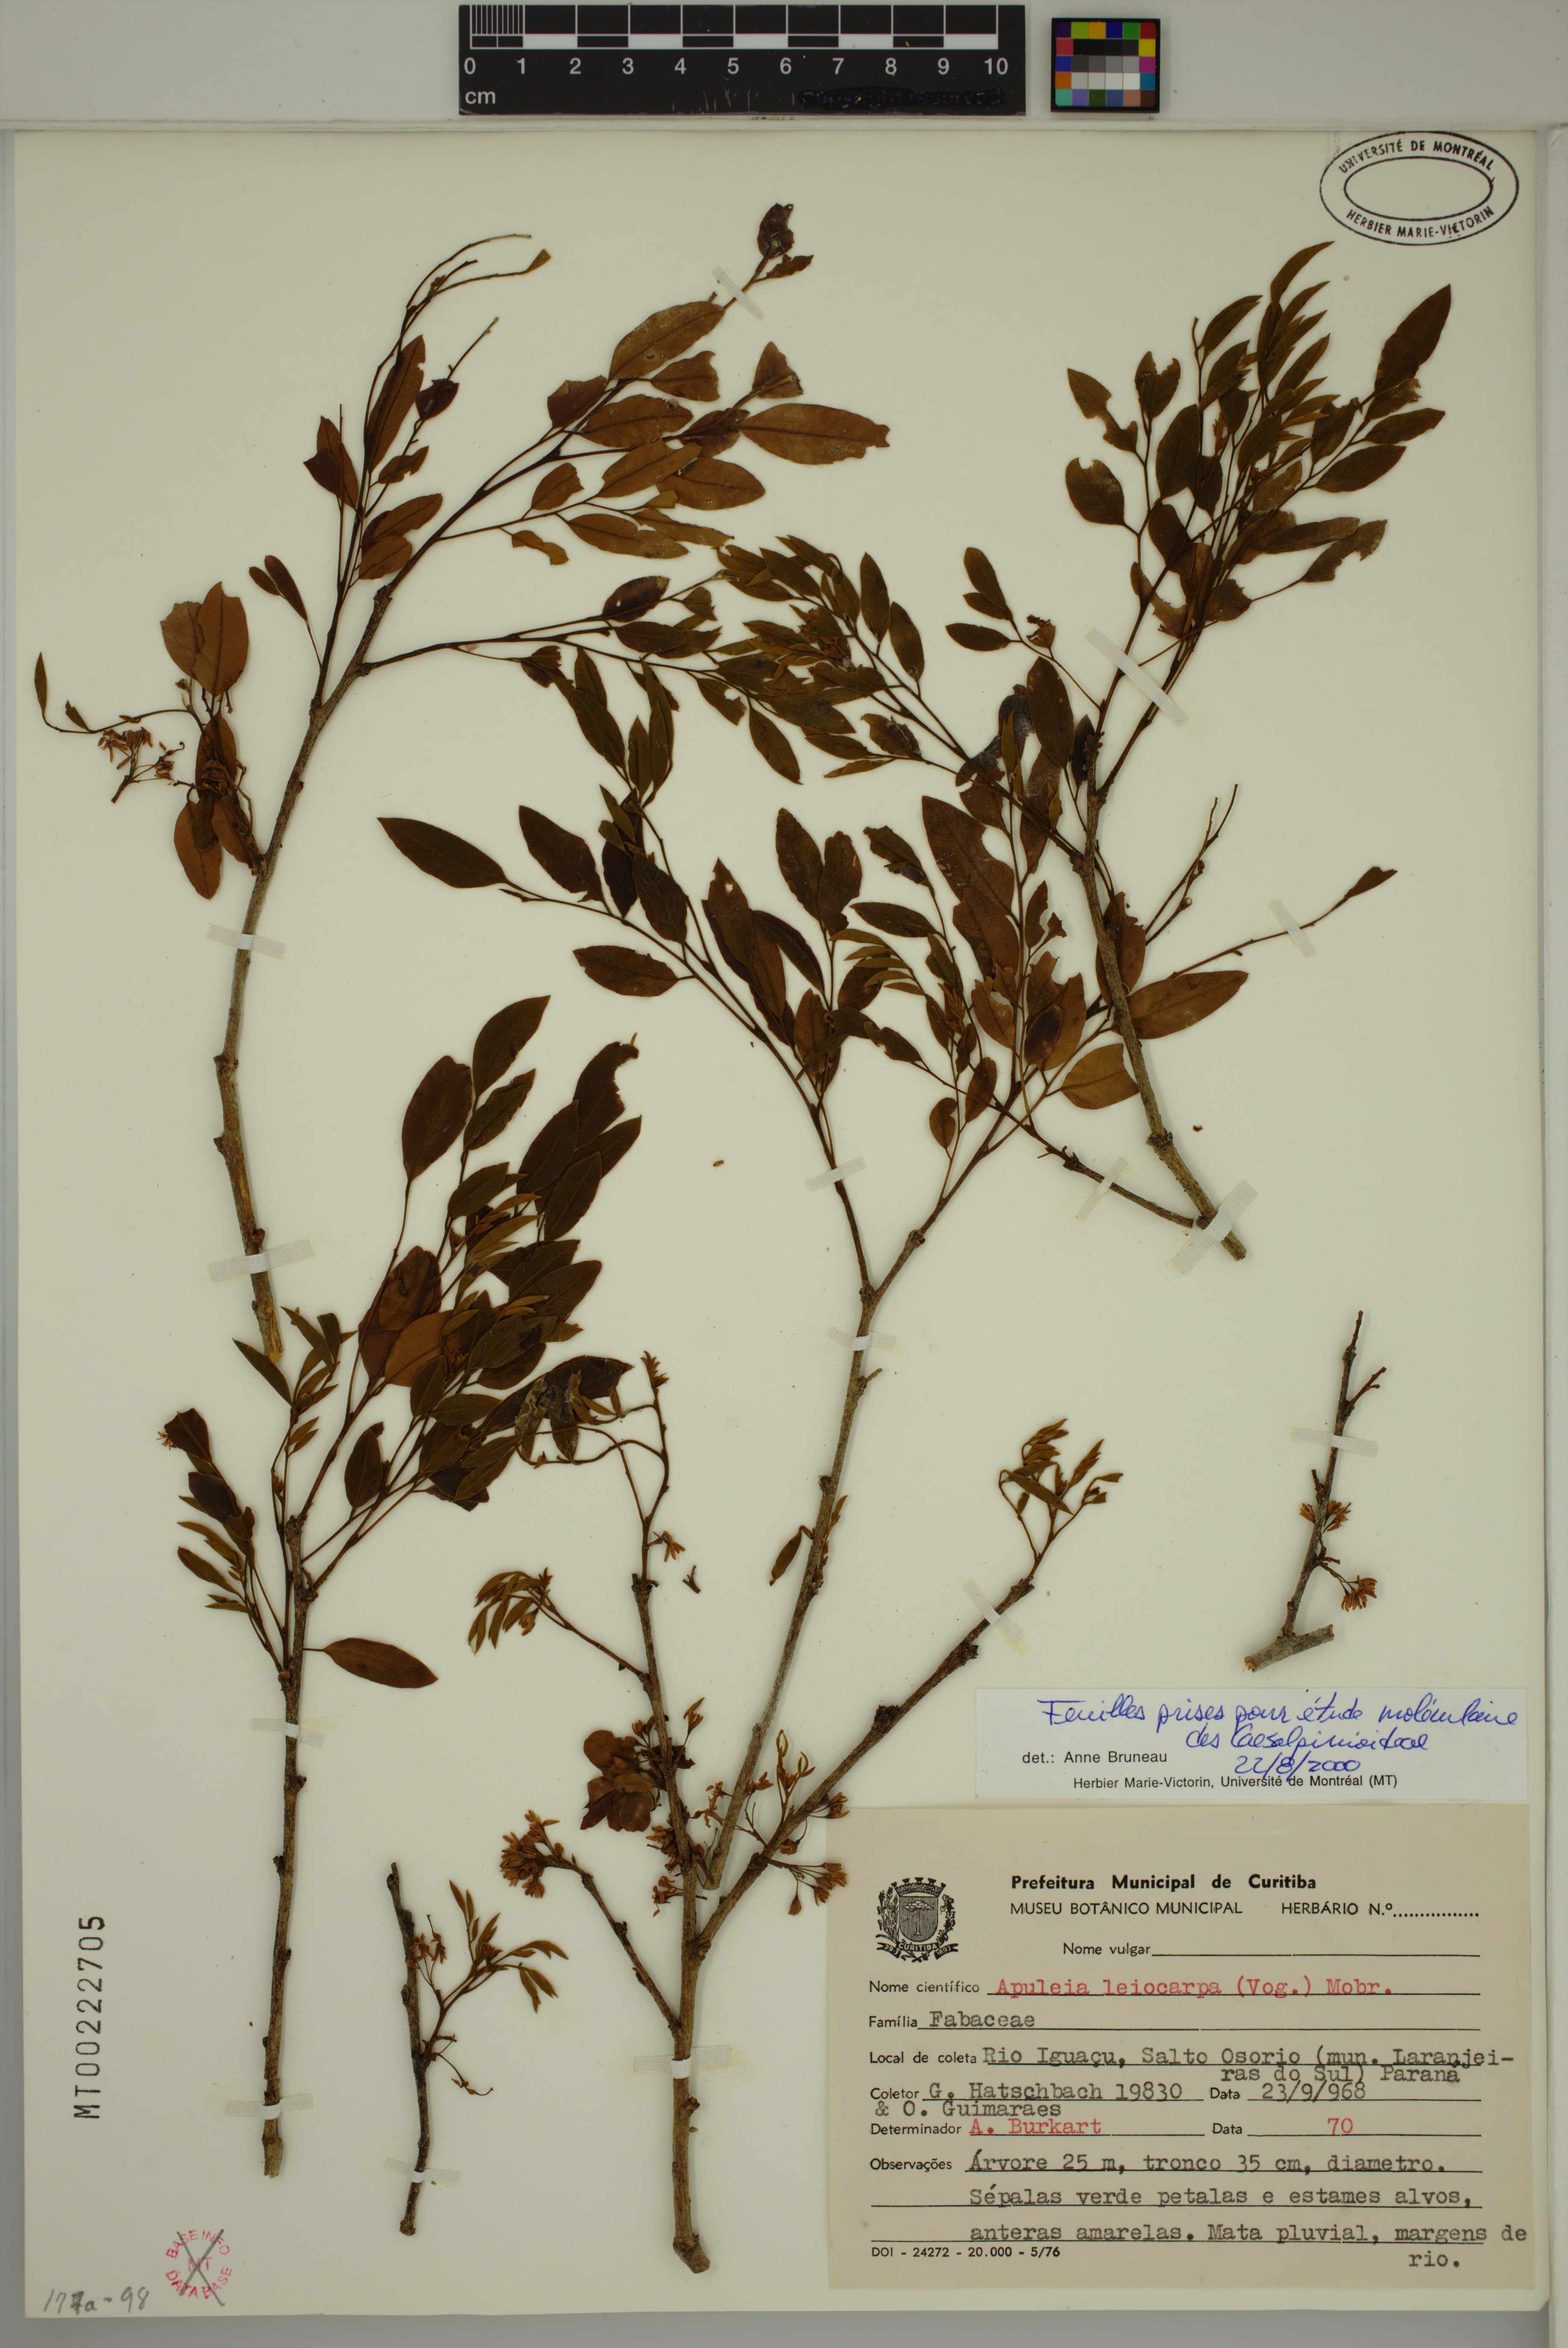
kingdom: Plantae
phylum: Tracheophyta
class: Magnoliopsida
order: Fabales
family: Fabaceae
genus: Apuleia
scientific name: Apuleia leiocarpa
